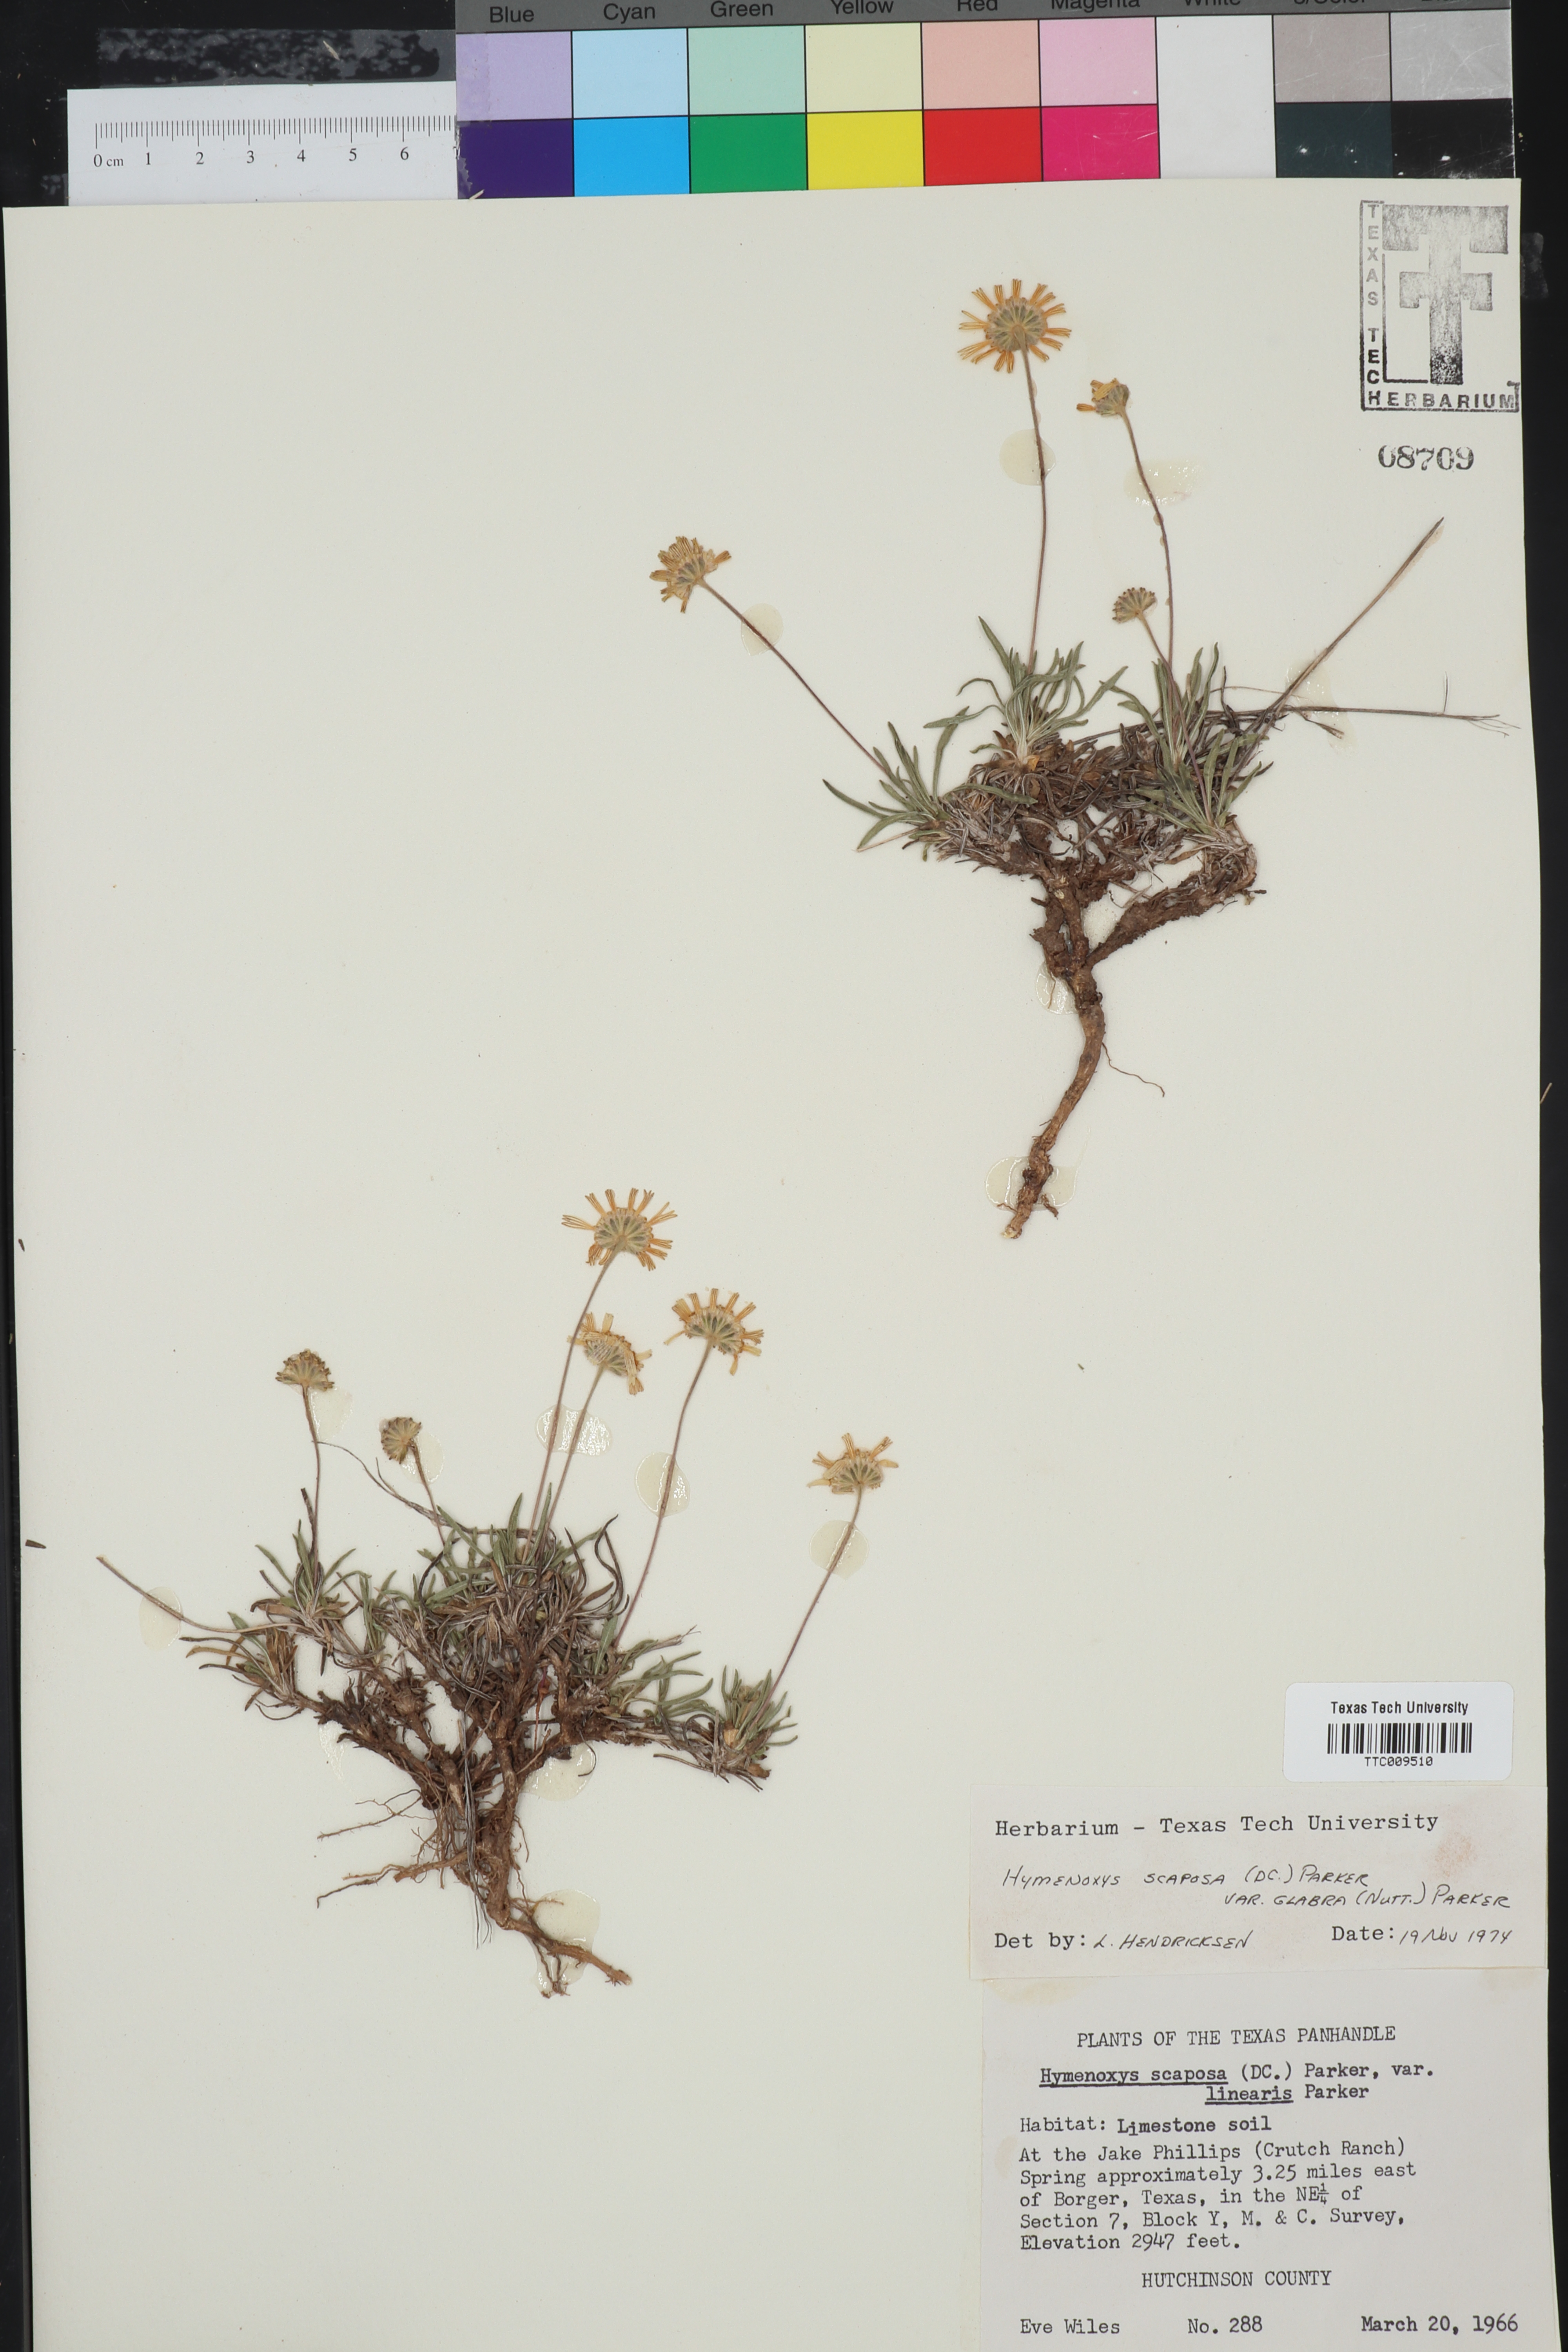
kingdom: Plantae
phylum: Tracheophyta
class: Magnoliopsida
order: Asterales
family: Asteraceae
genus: Tetraneuris
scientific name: Tetraneuris scaposa
